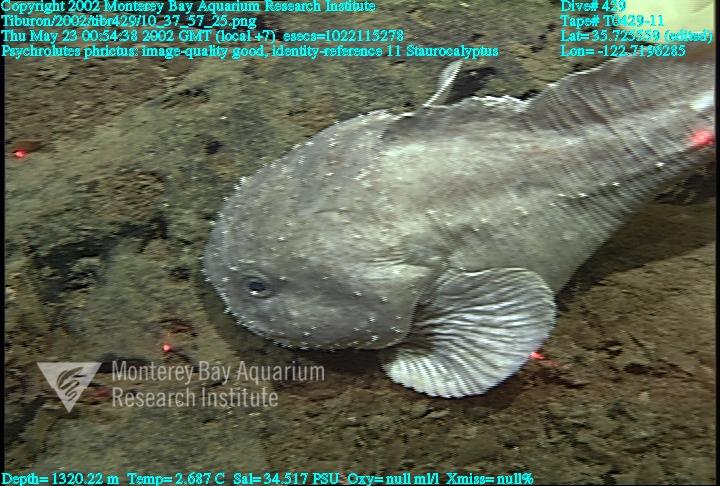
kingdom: Animalia
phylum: Porifera
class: Hexactinellida
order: Lyssacinosida
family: Rossellidae
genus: Staurocalyptus
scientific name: Staurocalyptus
